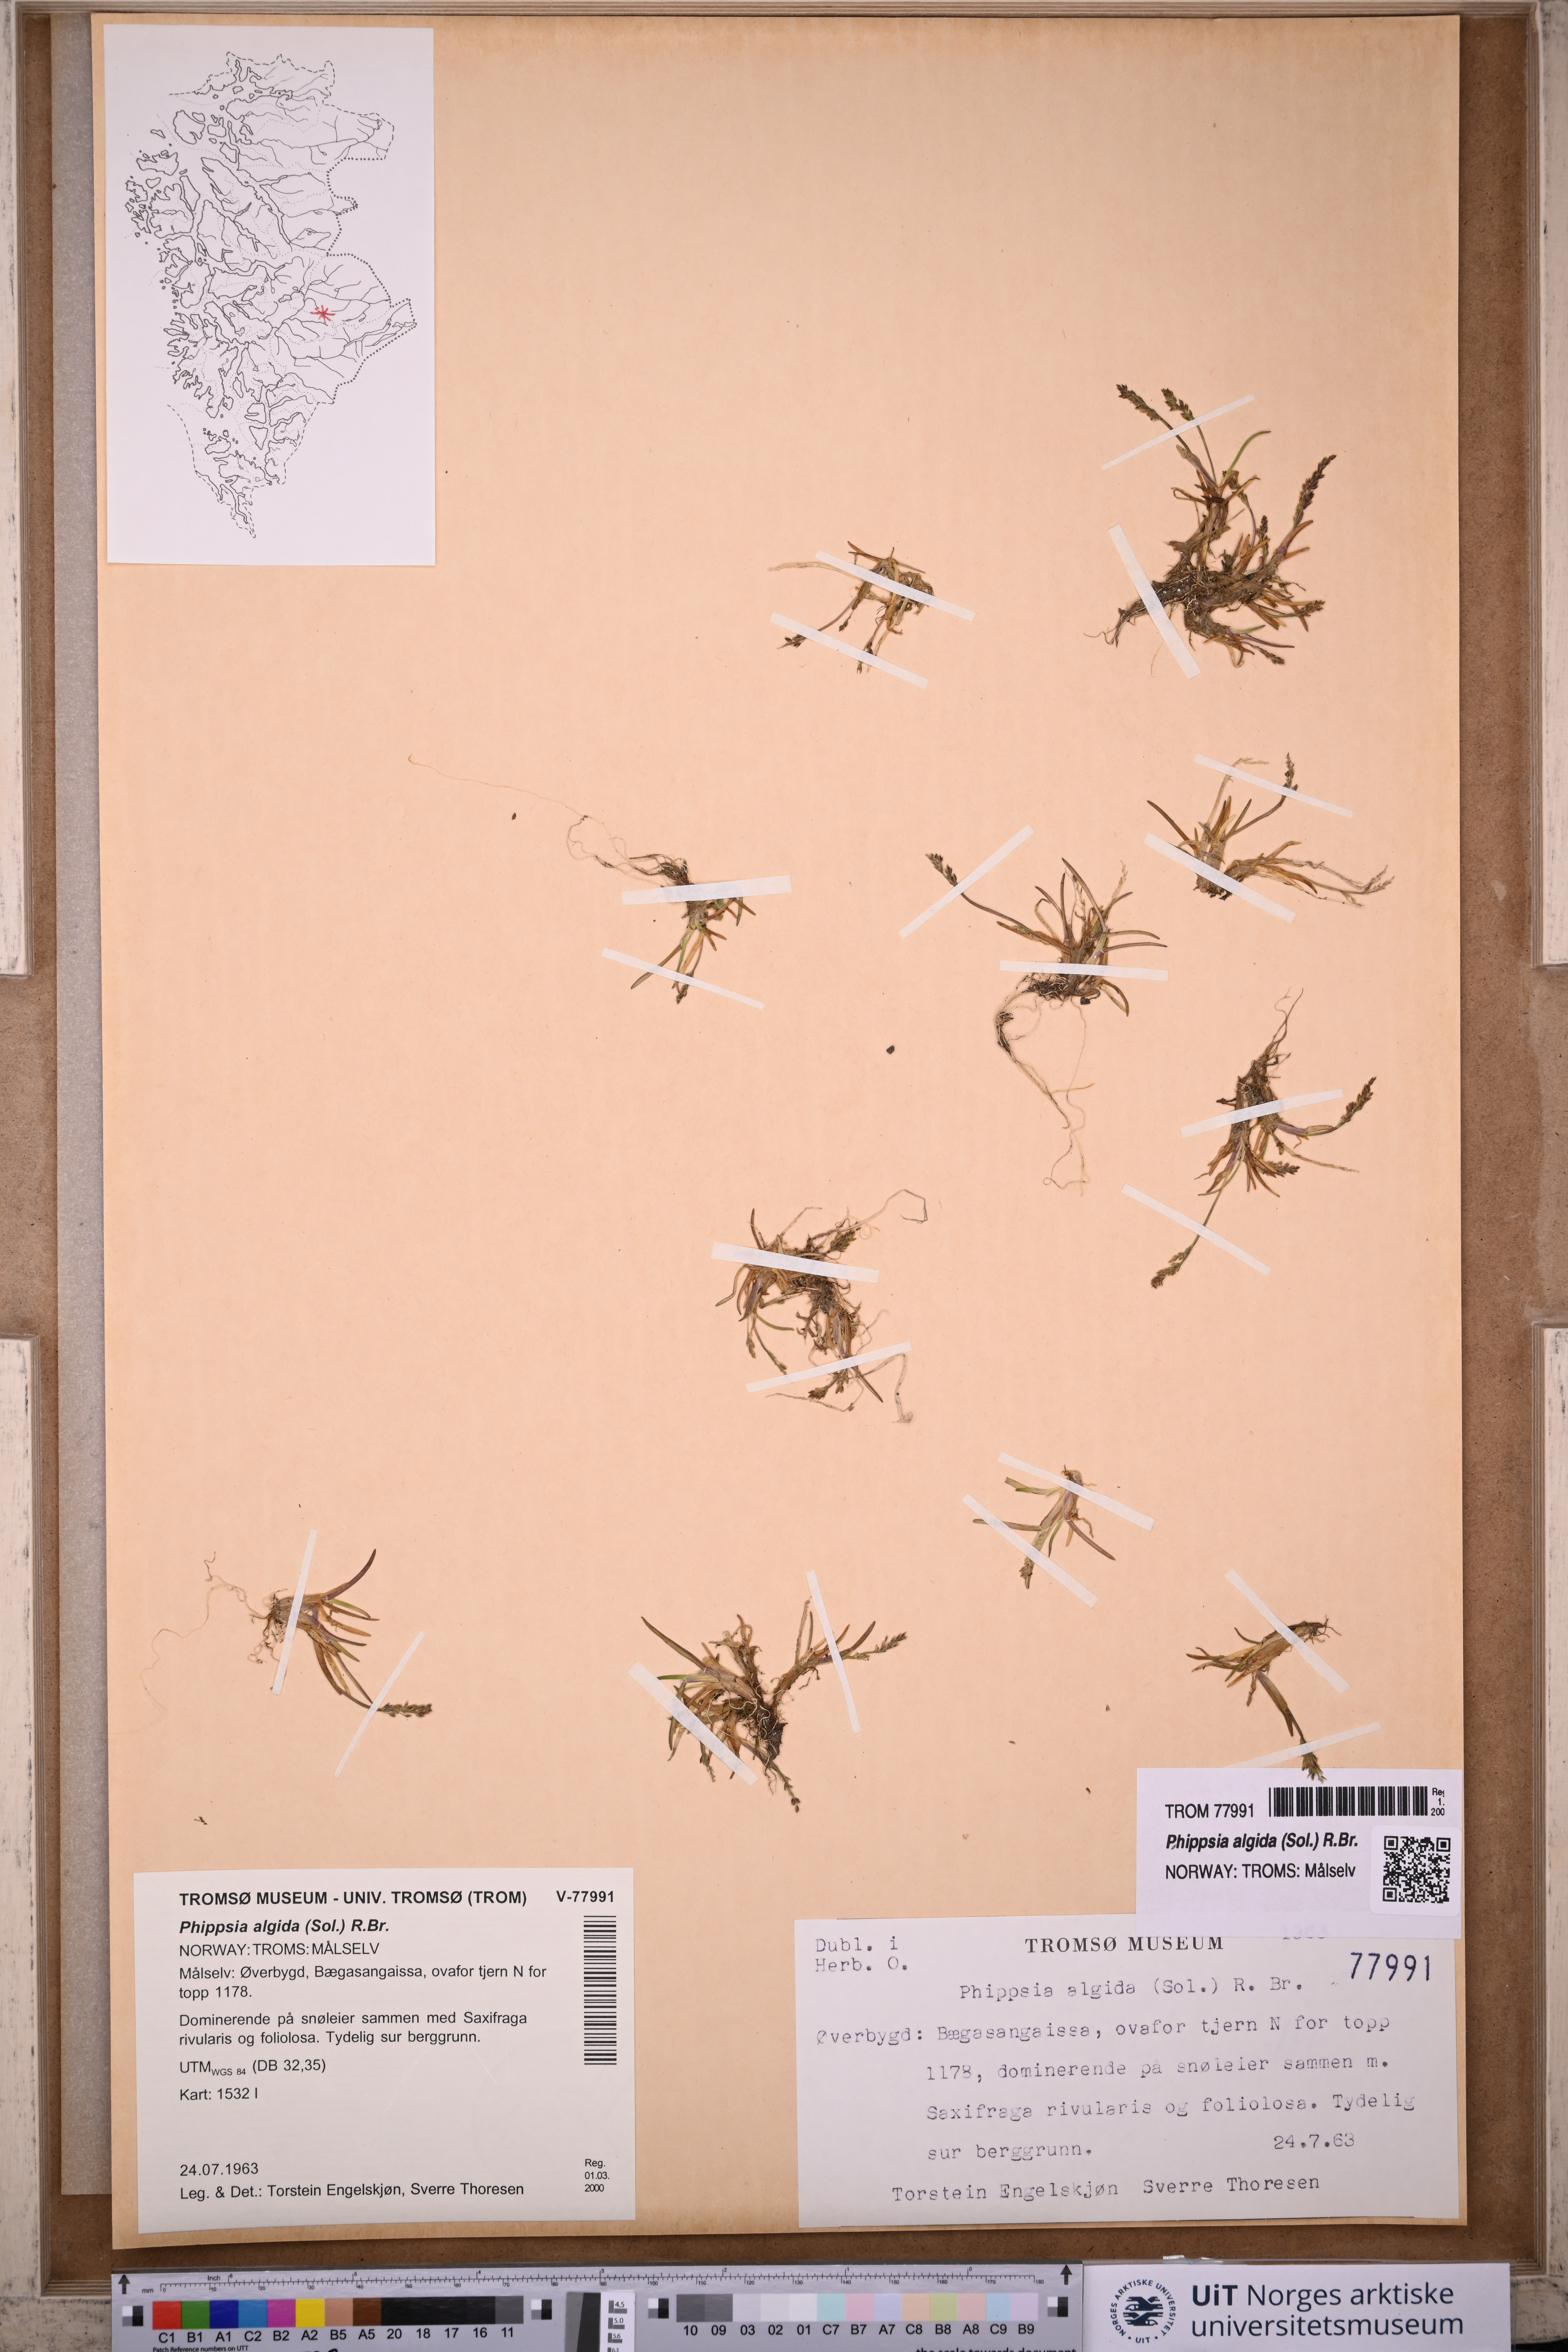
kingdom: Plantae
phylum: Tracheophyta
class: Liliopsida
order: Poales
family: Poaceae
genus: Phippsia
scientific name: Phippsia algida
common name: Ice grass
